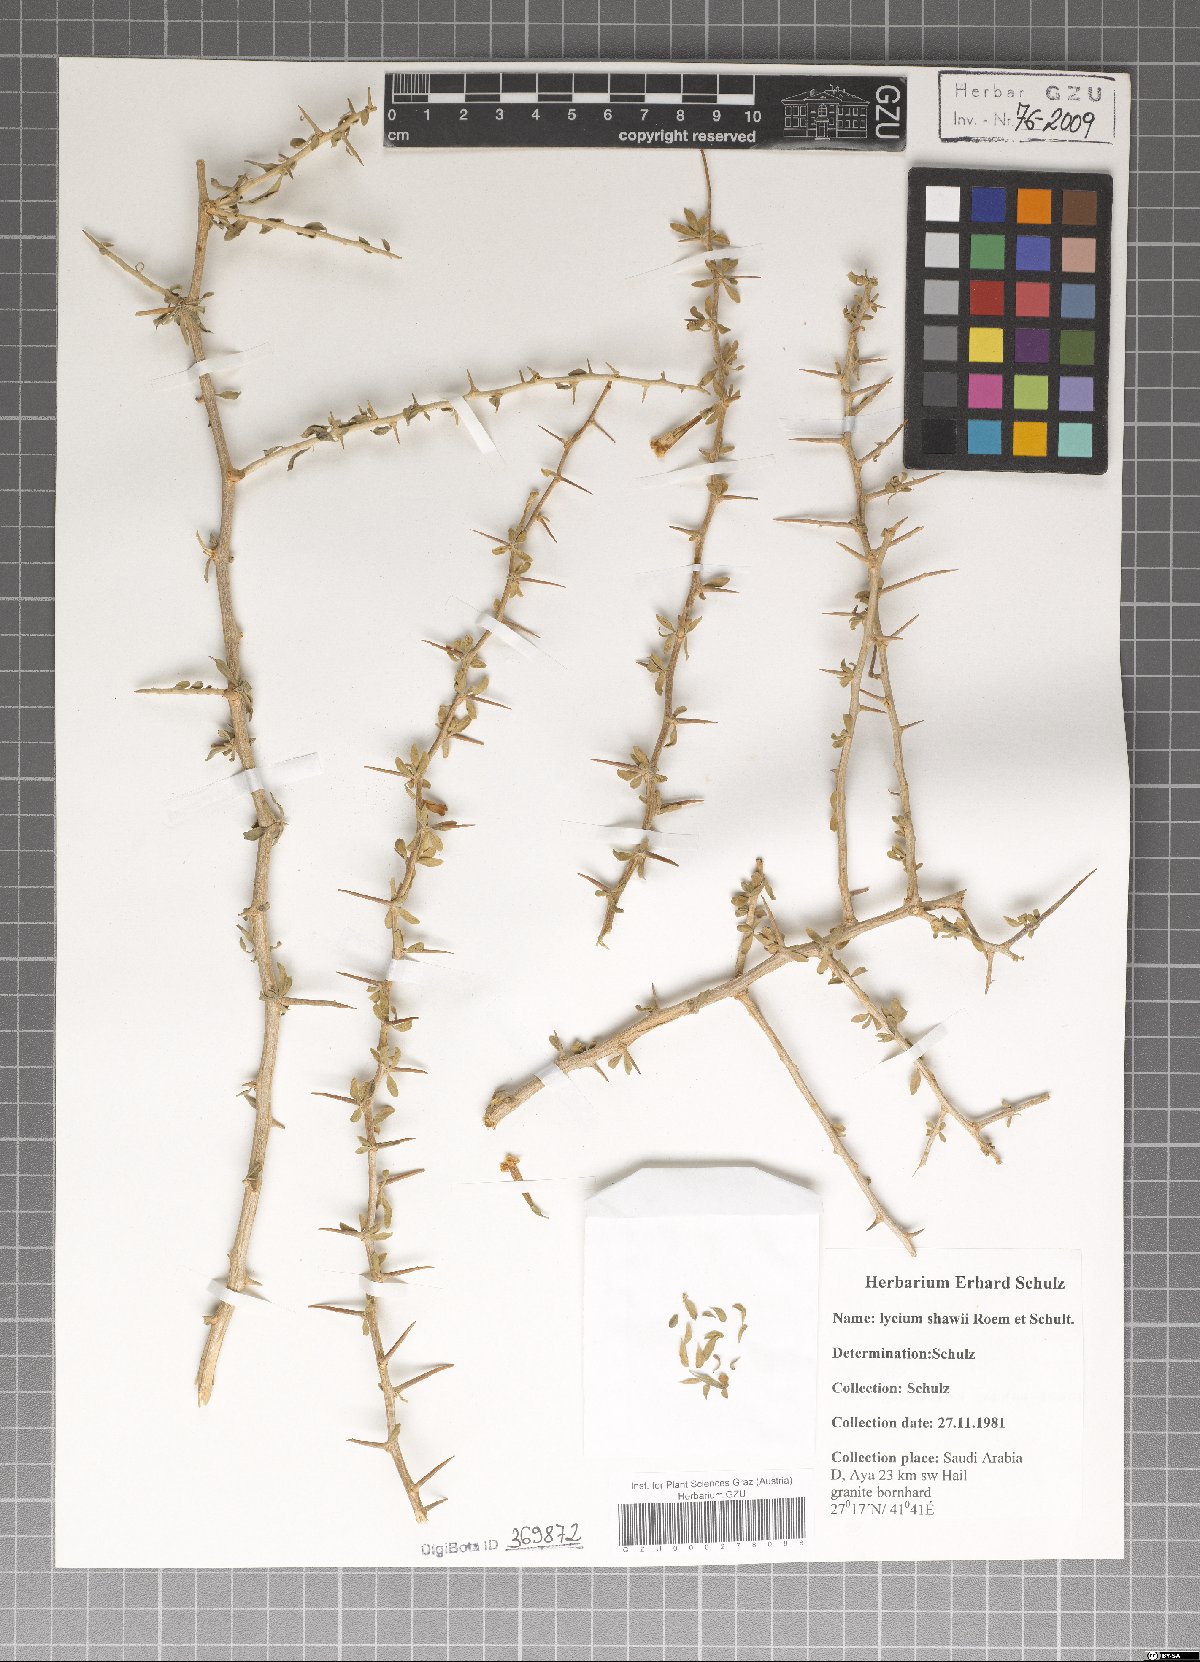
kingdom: Plantae
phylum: Tracheophyta
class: Magnoliopsida
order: Solanales
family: Solanaceae
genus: Lycium
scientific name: Lycium shawii
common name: Boxthorn
